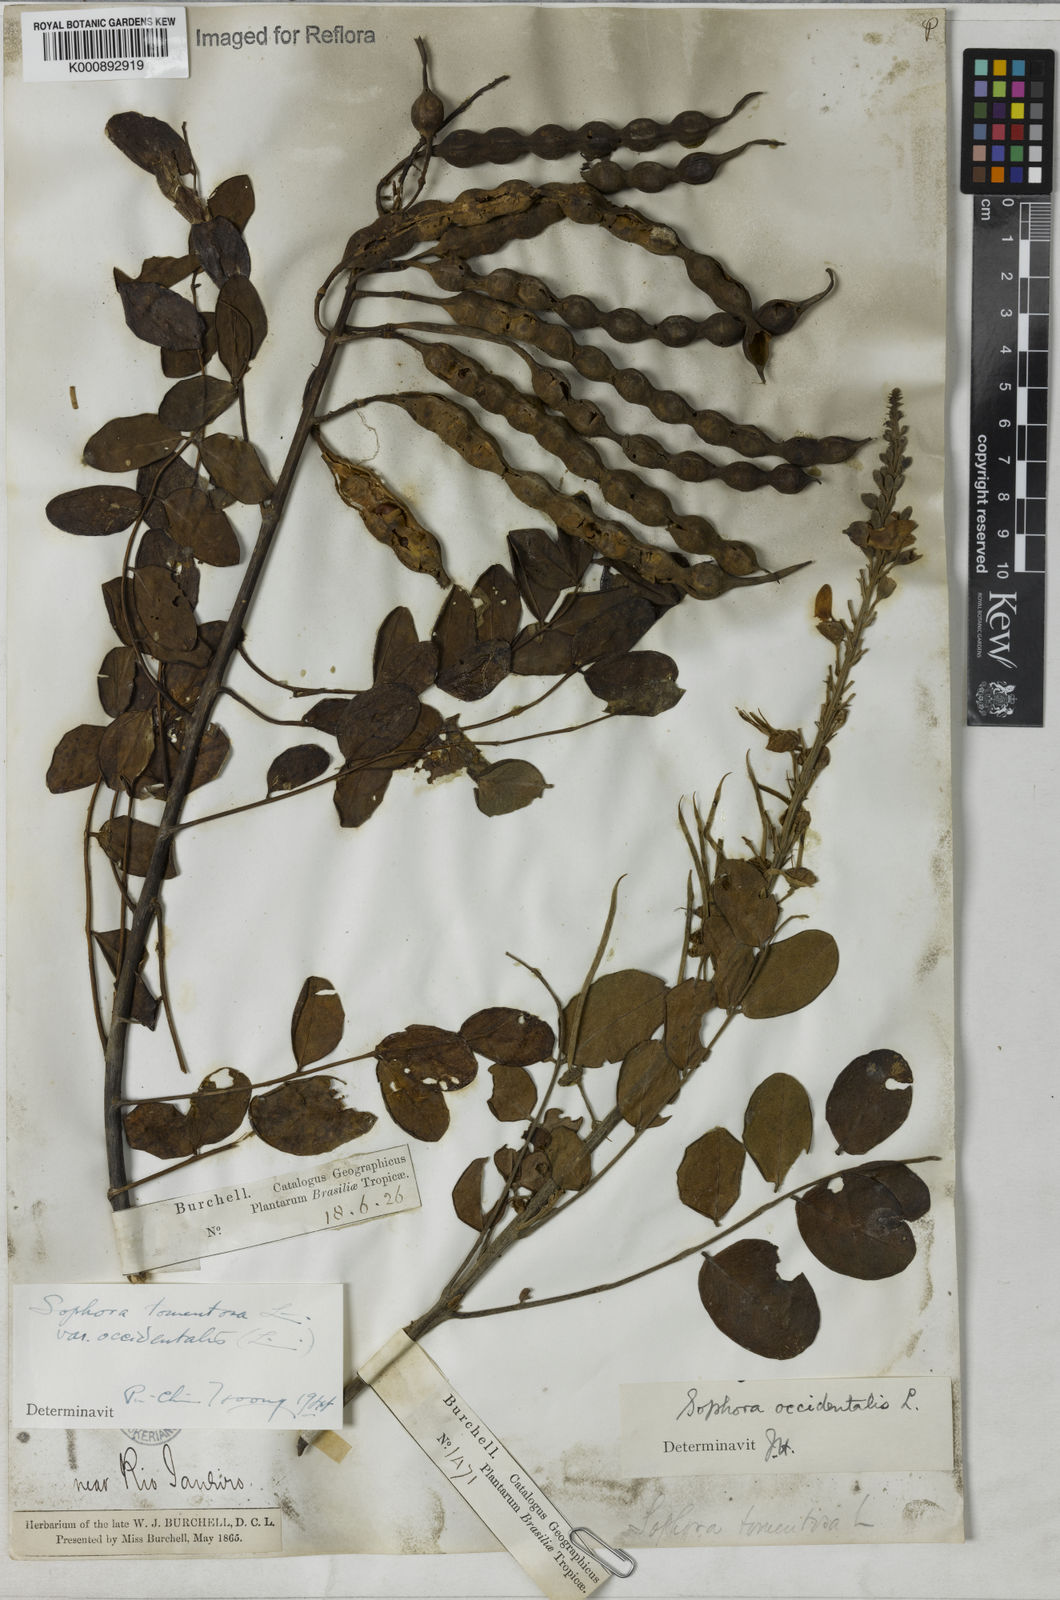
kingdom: Plantae
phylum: Tracheophyta
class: Magnoliopsida
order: Fabales
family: Fabaceae
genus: Sophora
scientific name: Sophora tomentosa
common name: Yellow necklacepod
